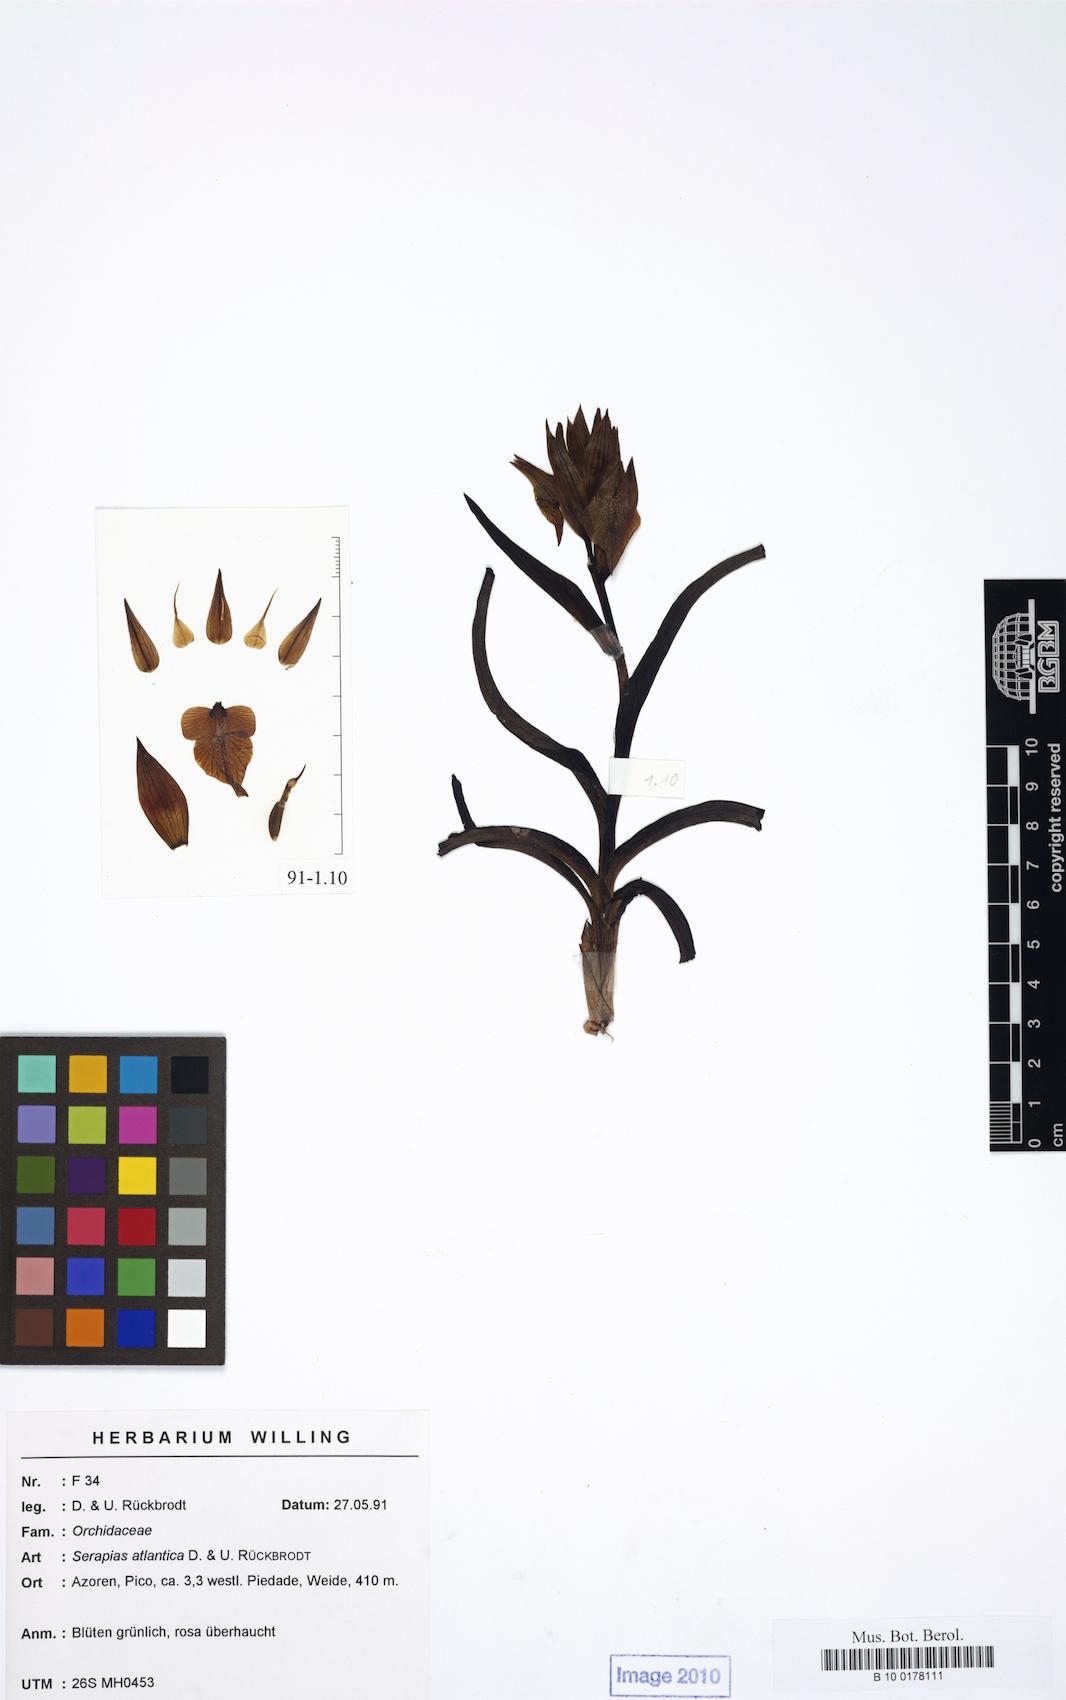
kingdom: Plantae
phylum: Tracheophyta
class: Liliopsida
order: Asparagales
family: Orchidaceae
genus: Serapias
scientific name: Serapias cordigera
